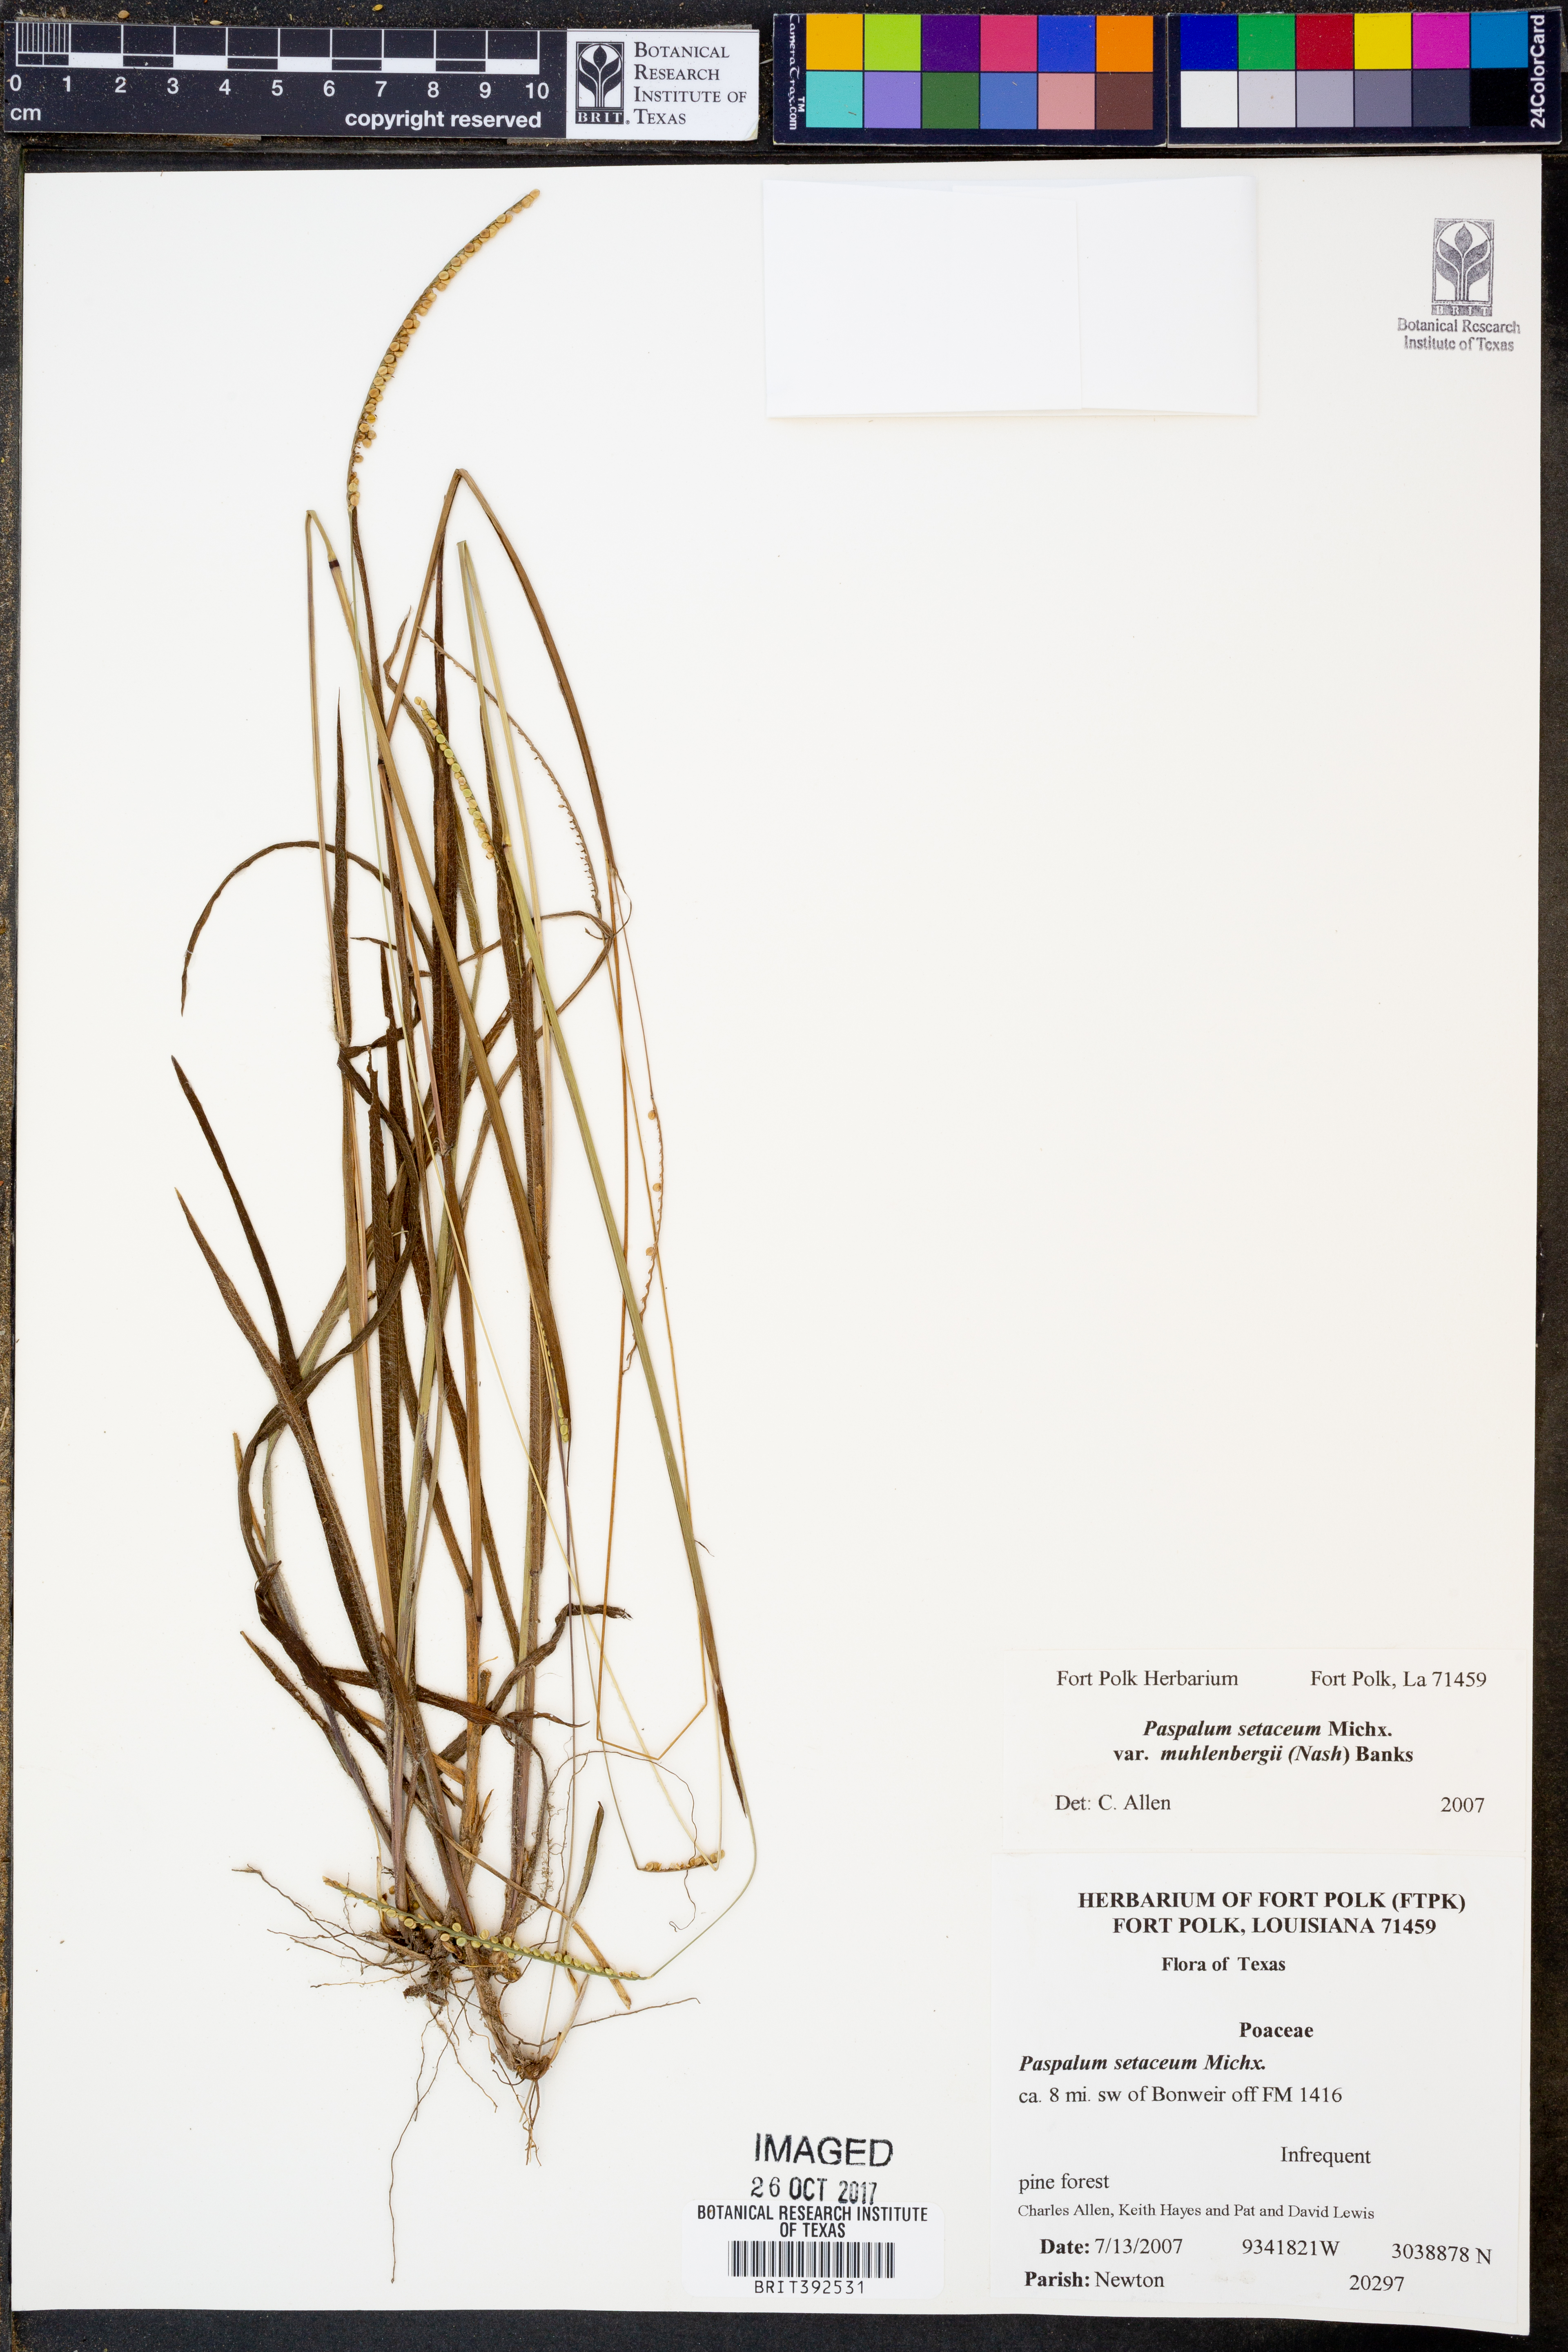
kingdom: Plantae
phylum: Tracheophyta
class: Liliopsida
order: Poales
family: Poaceae
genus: Paspalum
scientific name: Paspalum setaceum
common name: Slender paspalum
